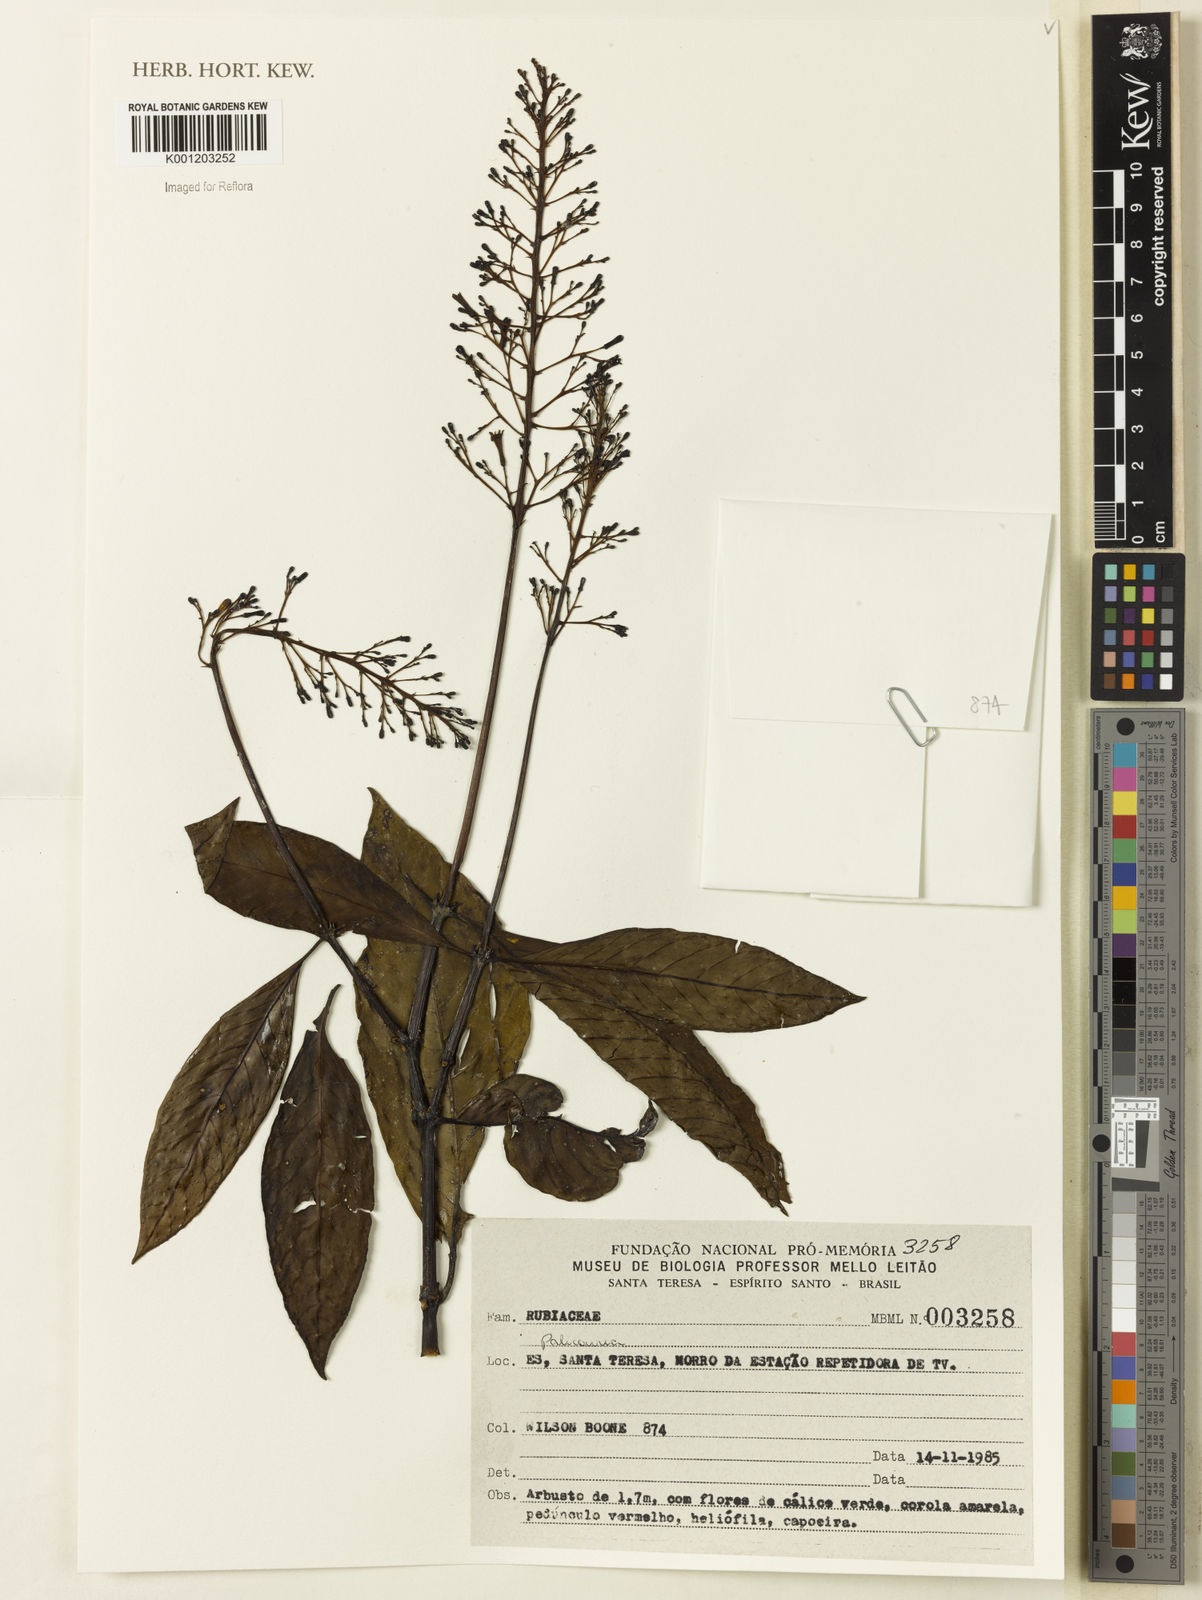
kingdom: Plantae
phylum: Tracheophyta
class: Magnoliopsida
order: Gentianales
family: Rubiaceae
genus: Palicourea
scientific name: Palicourea
